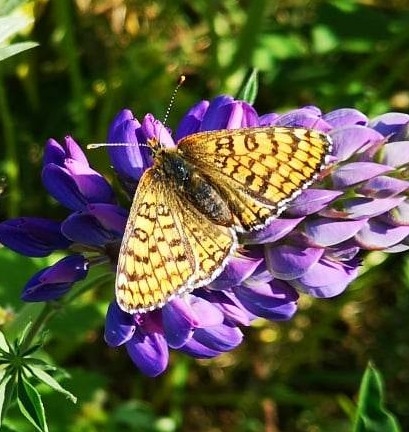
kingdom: Animalia
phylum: Arthropoda
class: Insecta
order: Lepidoptera
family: Nymphalidae
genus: Melitaea
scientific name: Melitaea cinxia
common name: Okkergul pletvinge
